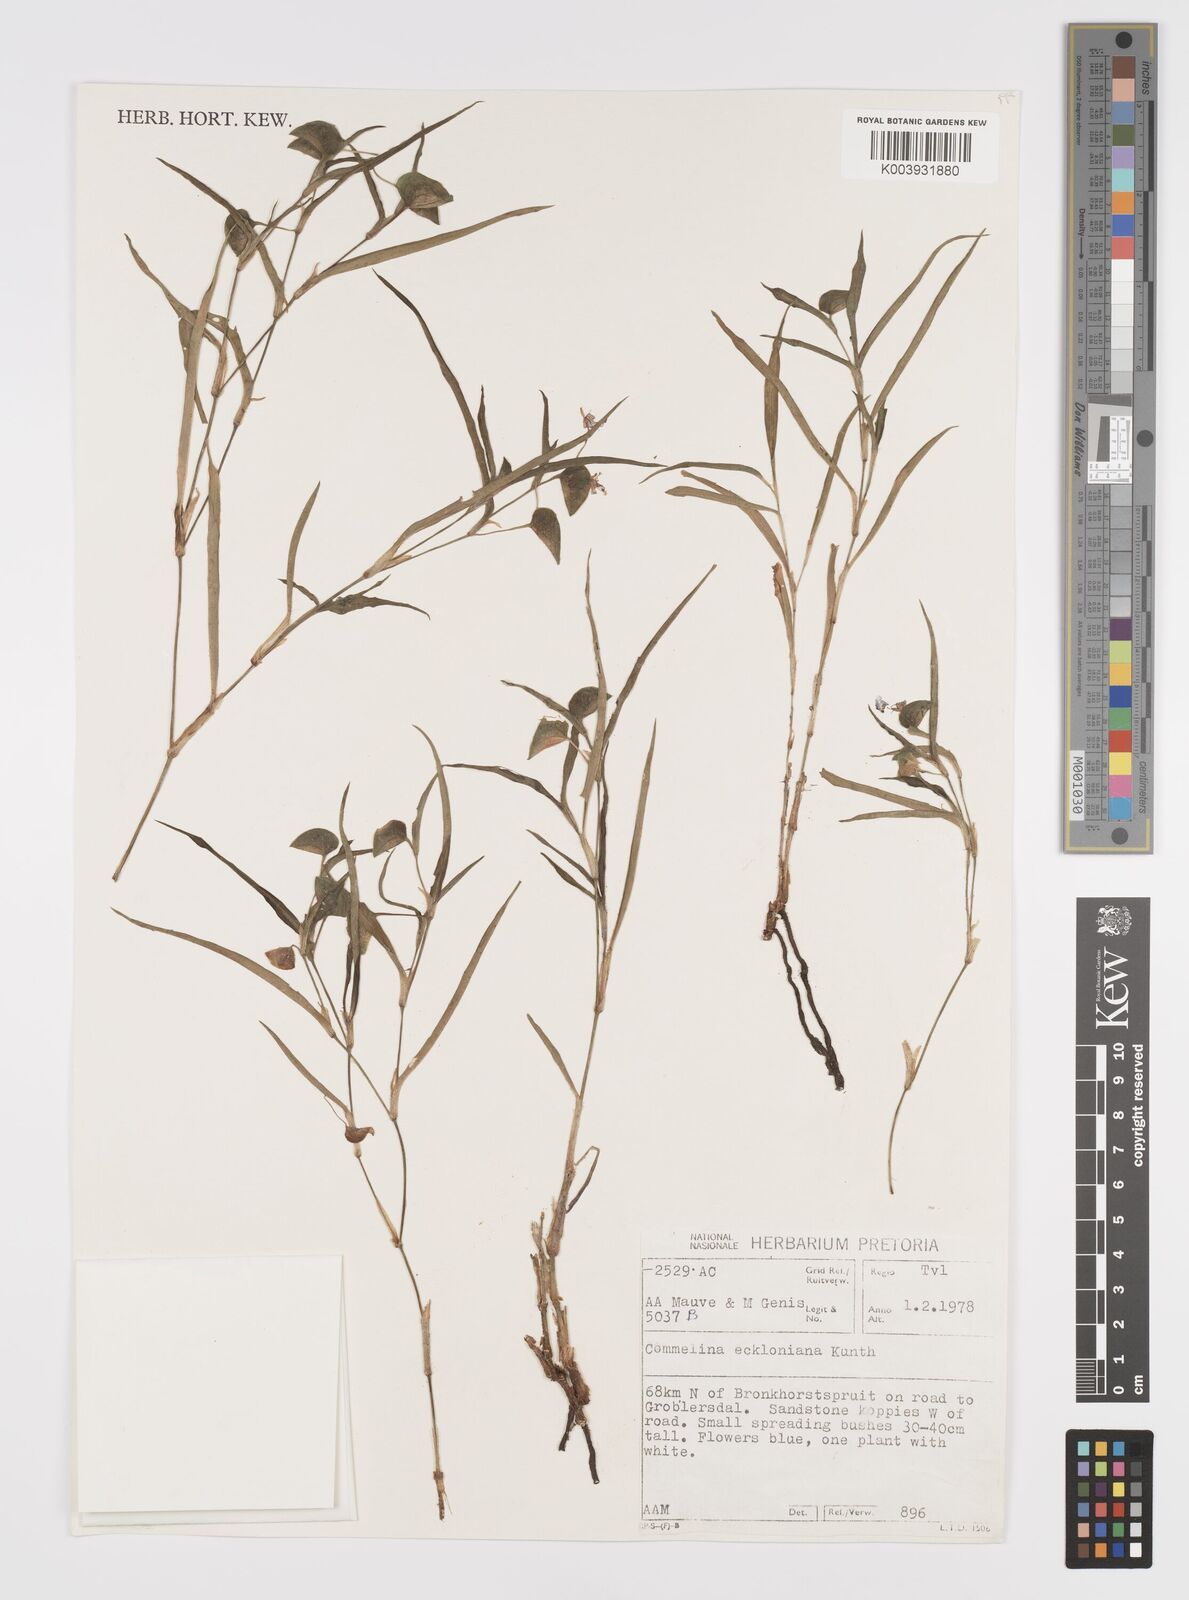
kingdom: Plantae
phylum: Tracheophyta
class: Liliopsida
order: Commelinales
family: Commelinaceae
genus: Commelina
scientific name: Commelina eckloniana
